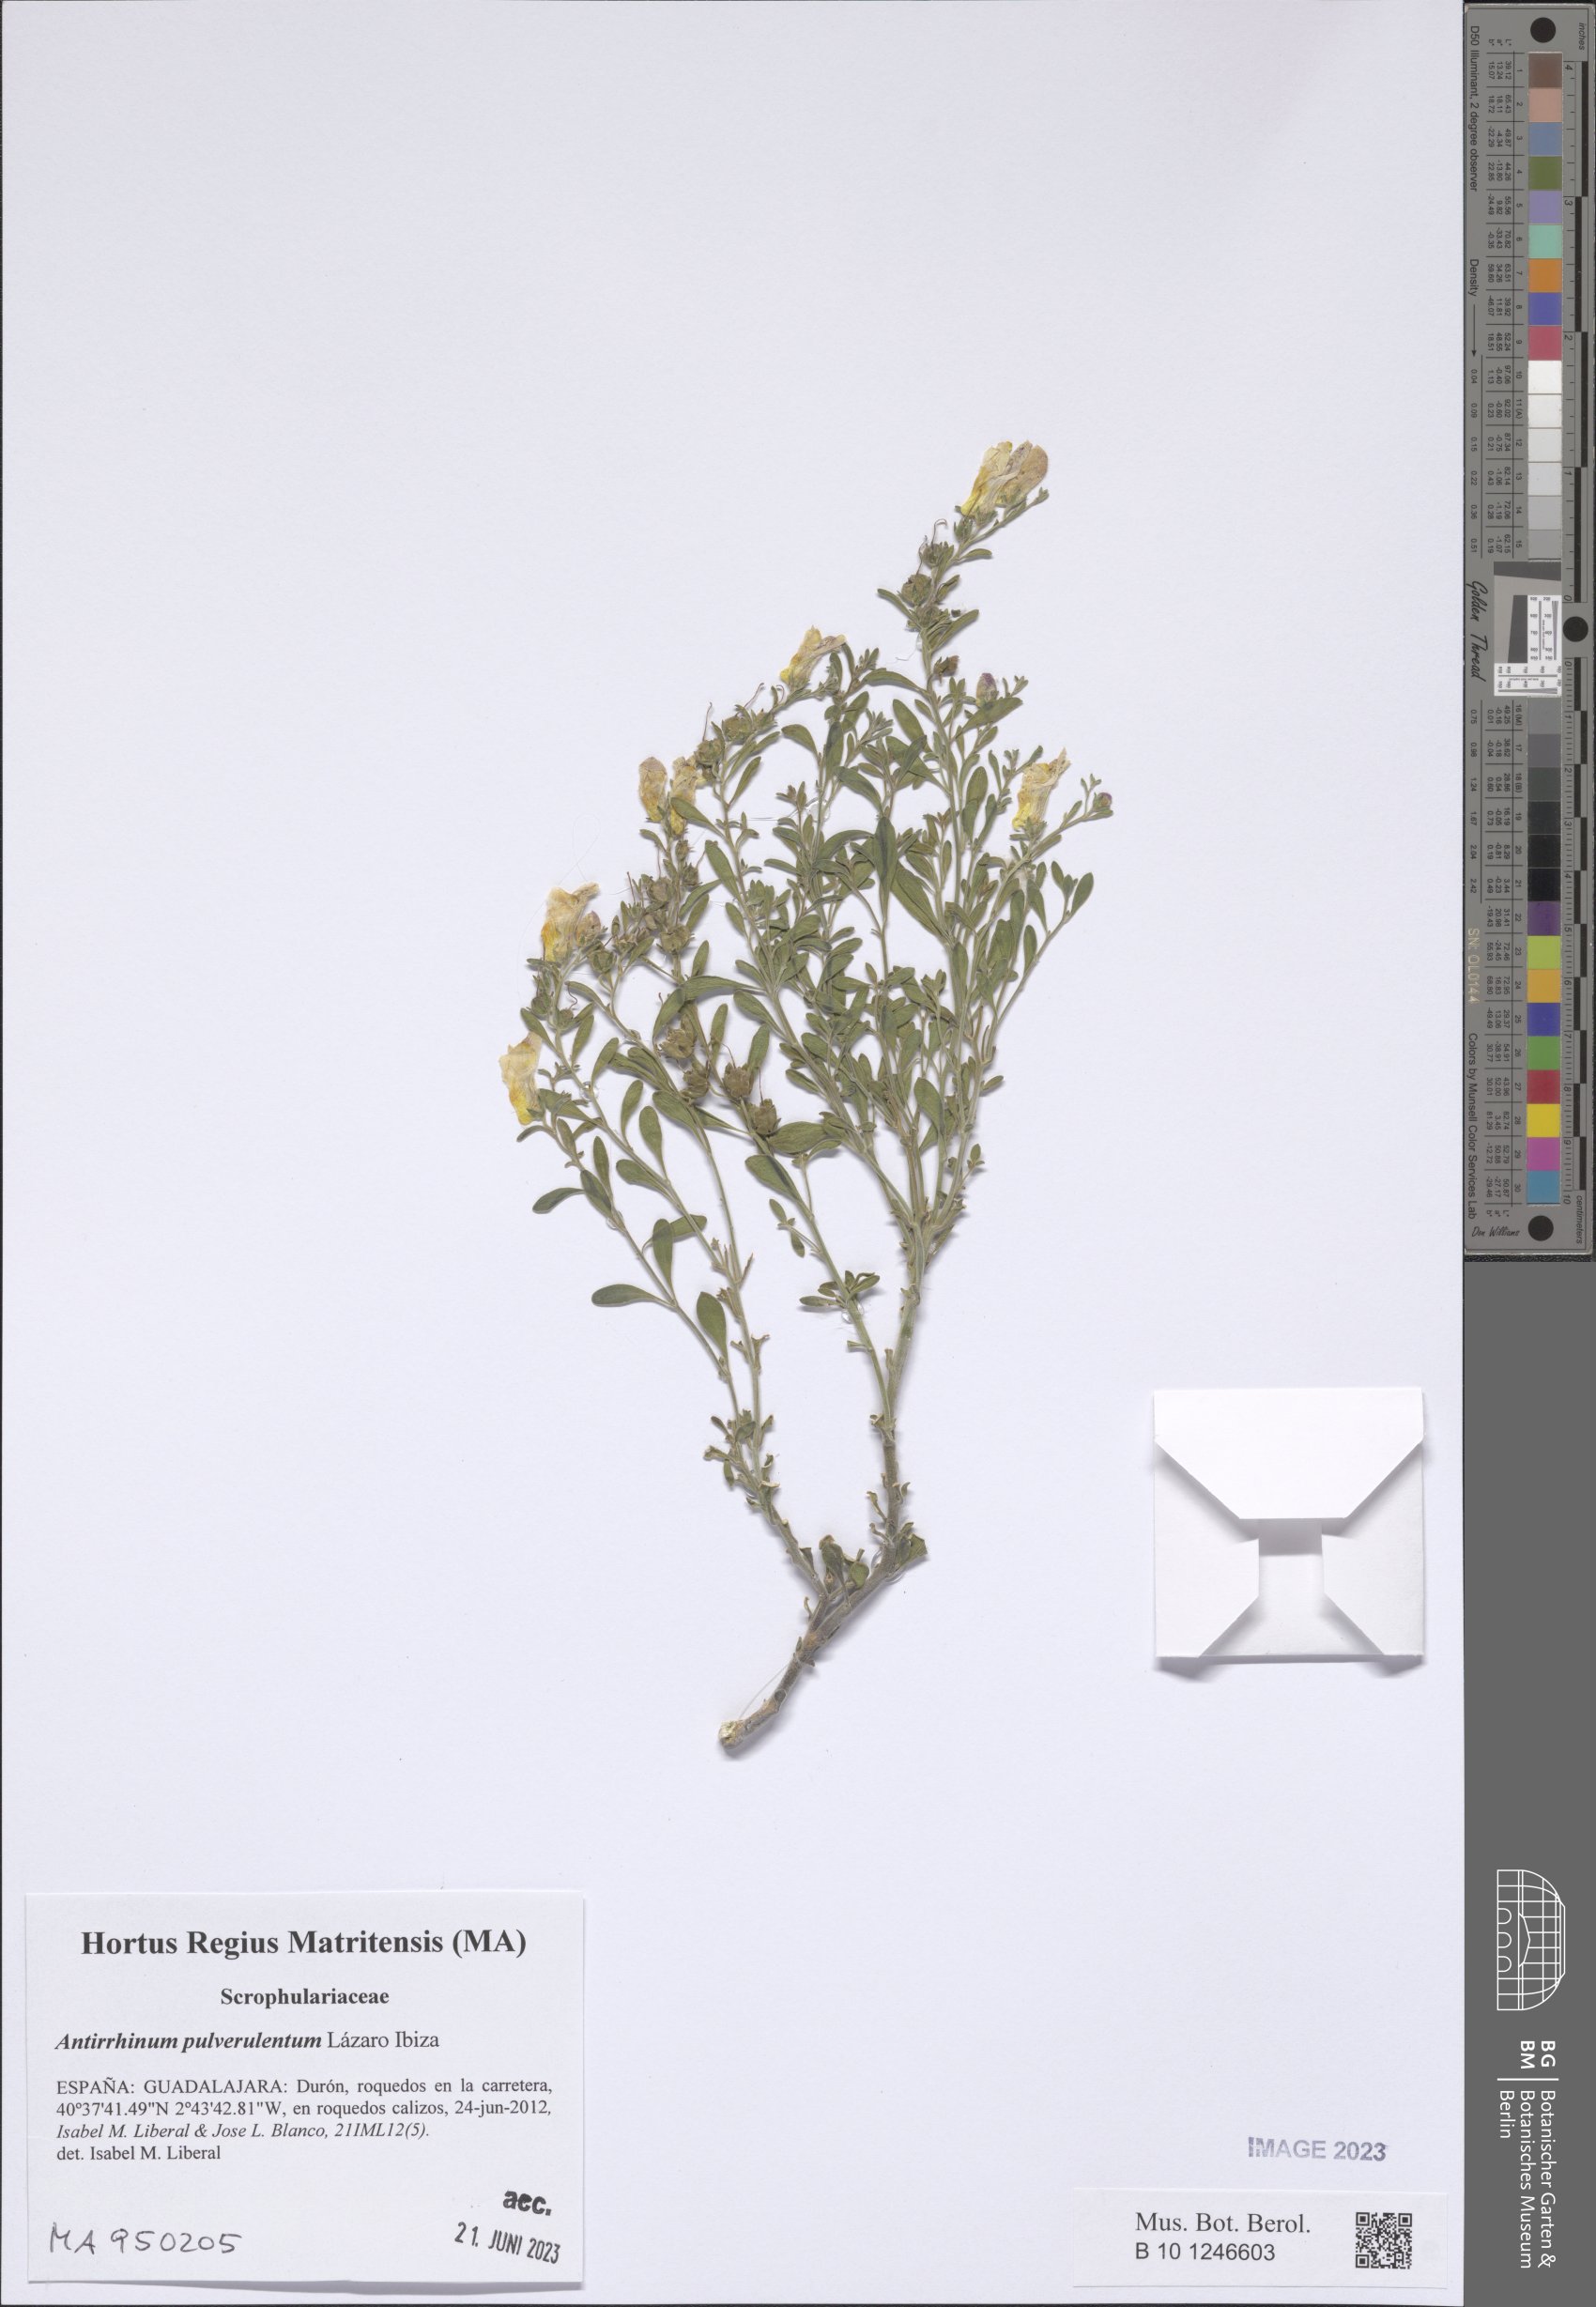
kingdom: Plantae
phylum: Tracheophyta
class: Magnoliopsida
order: Lamiales
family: Plantaginaceae
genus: Antirrhinum
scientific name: Antirrhinum pulverulentum
